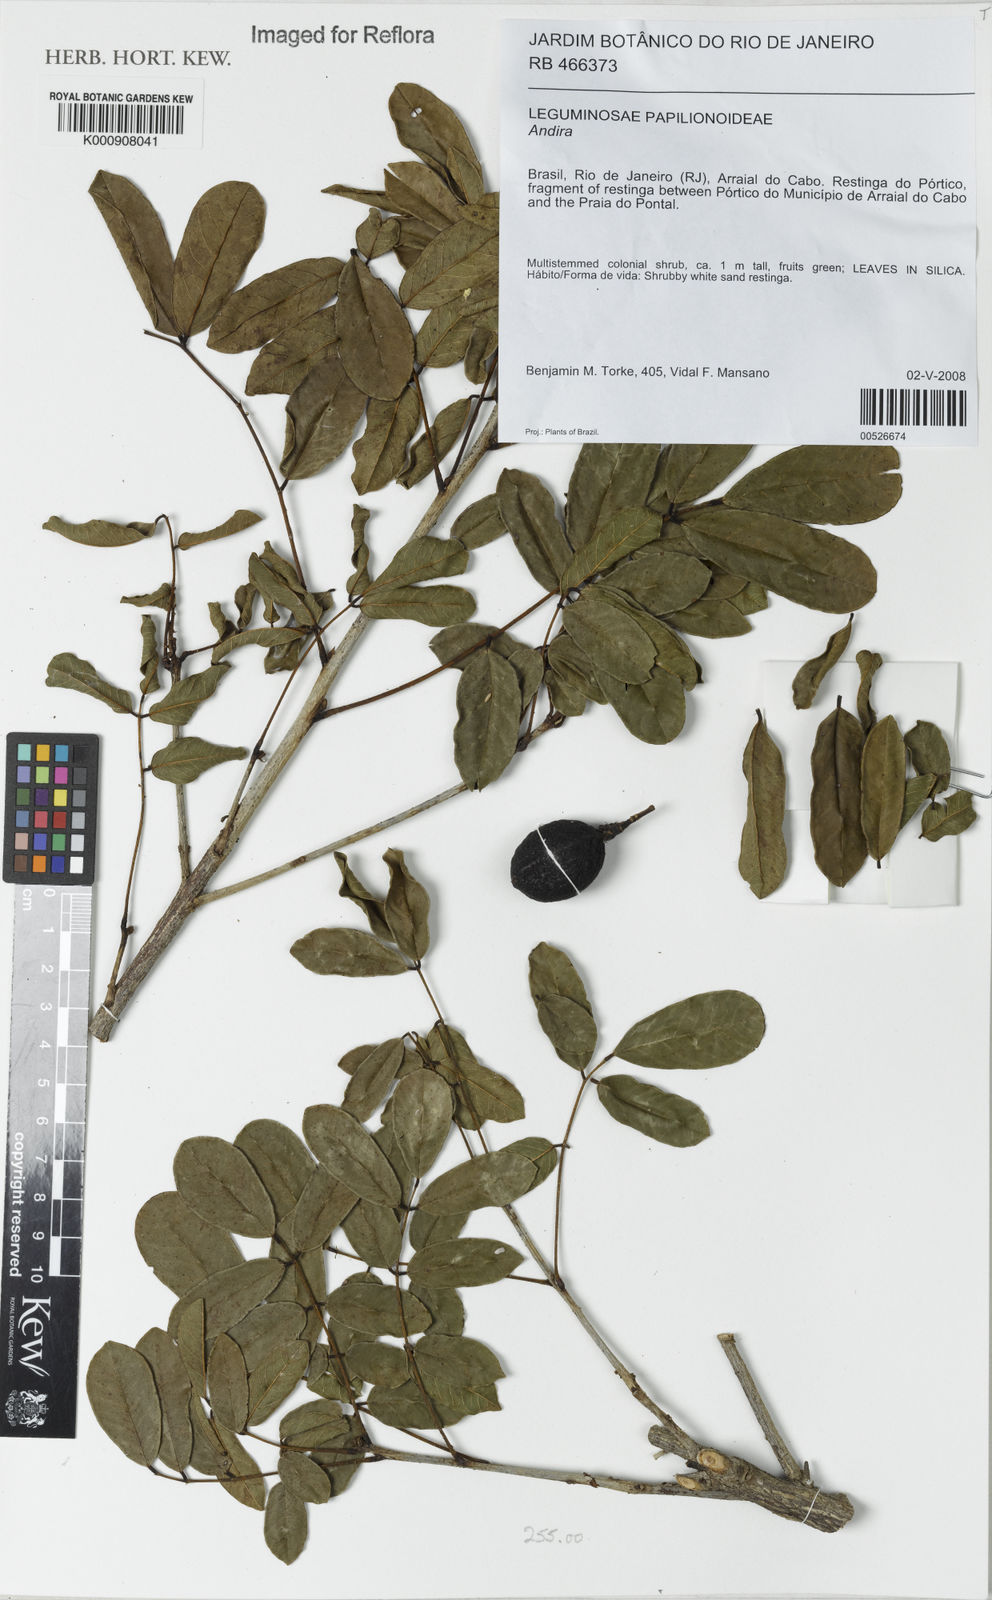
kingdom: Plantae
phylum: Tracheophyta
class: Magnoliopsida
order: Fabales
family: Fabaceae
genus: Andira
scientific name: Andira
